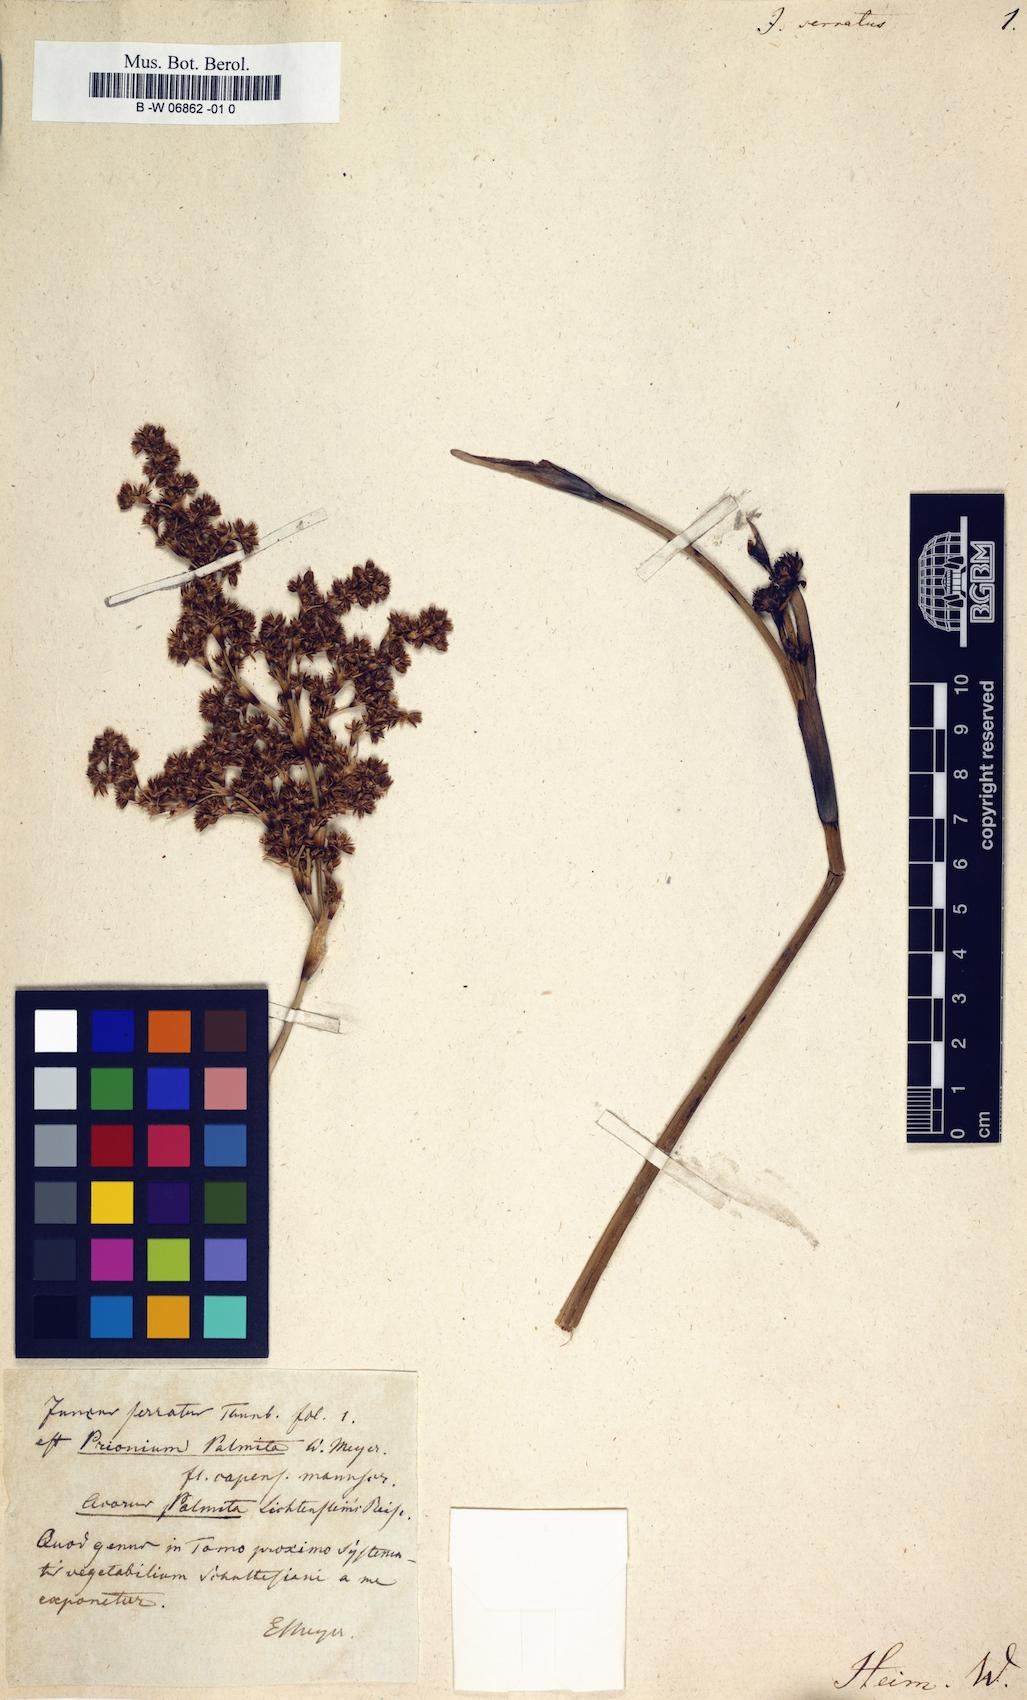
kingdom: Plantae
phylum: Tracheophyta
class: Liliopsida
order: Poales
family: Juncaceae
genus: Juncus
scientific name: Juncus soranthus
